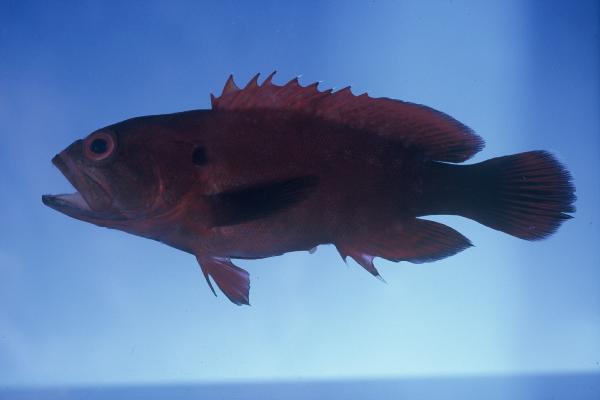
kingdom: Animalia
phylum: Chordata
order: Perciformes
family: Serranidae
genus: Cephalopholis
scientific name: Cephalopholis nigripinnis
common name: Duskyfin hind
